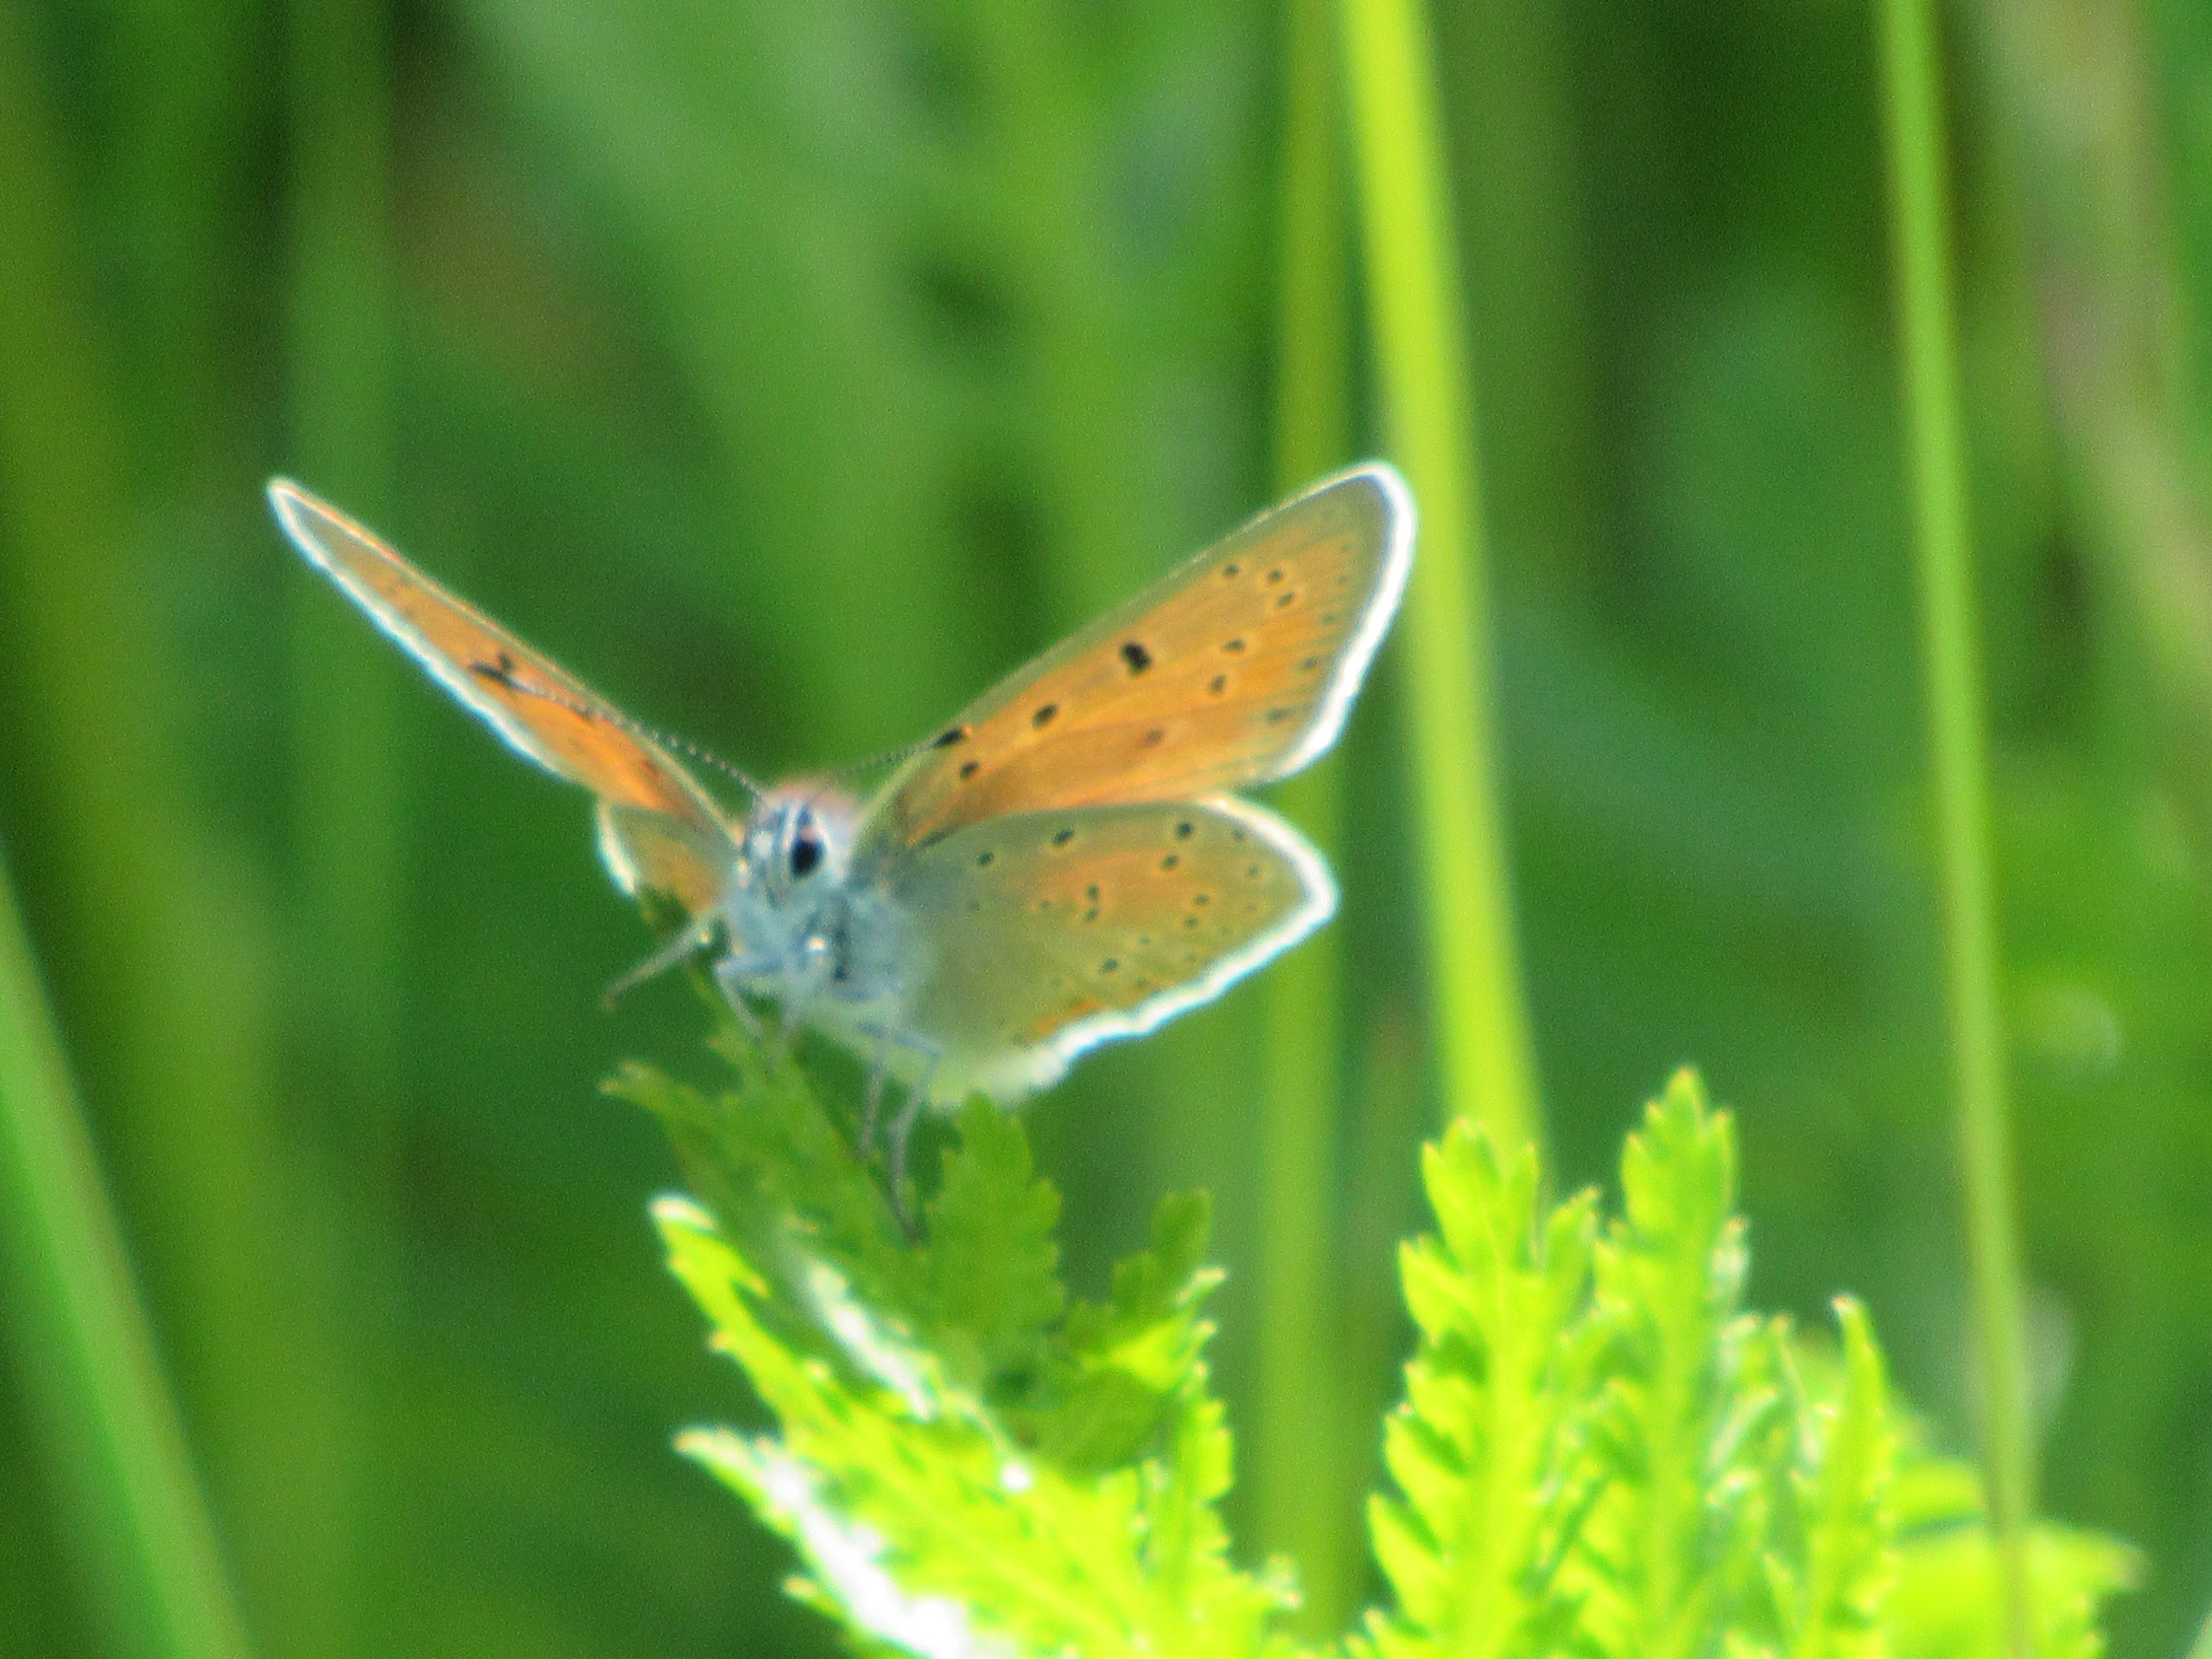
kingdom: Animalia
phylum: Arthropoda
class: Insecta
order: Lepidoptera
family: Lycaenidae
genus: Palaeochrysophanus
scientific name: Palaeochrysophanus hippothoe
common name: Violetrandet ildfugl
